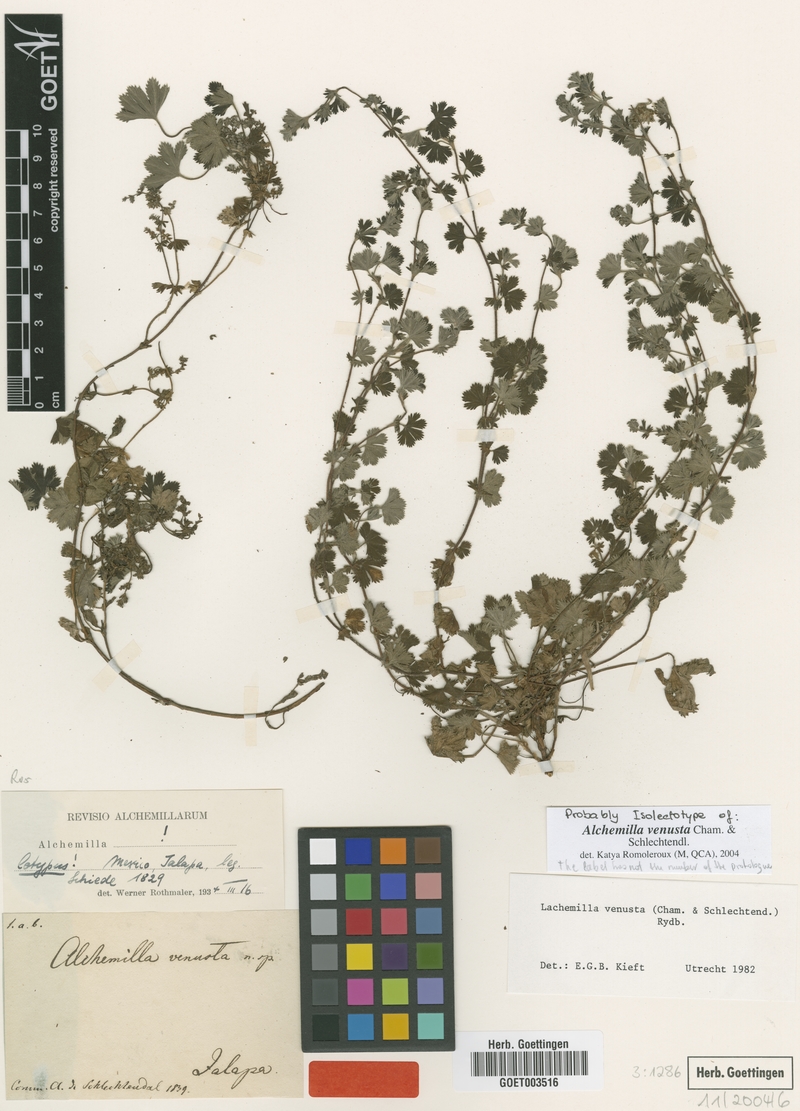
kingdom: Plantae
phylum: Tracheophyta
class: Magnoliopsida
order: Rosales
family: Rosaceae
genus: Lachemilla
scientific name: Lachemilla venusta
